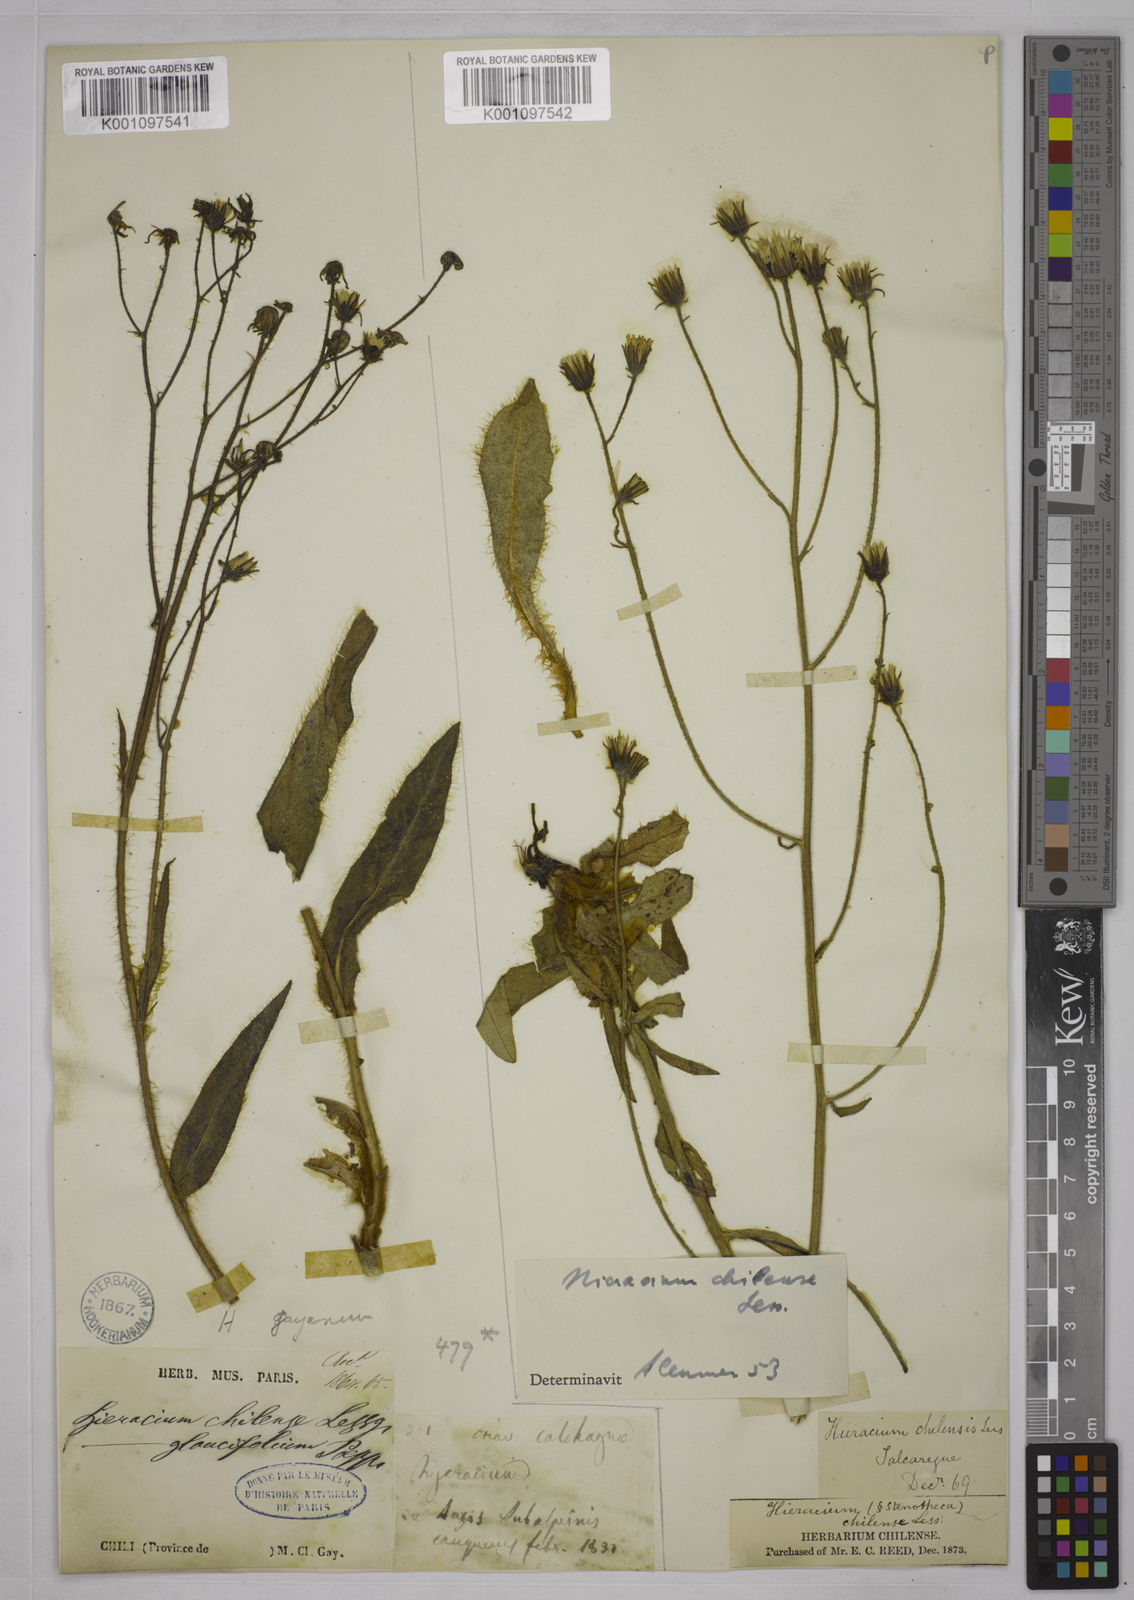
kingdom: Plantae
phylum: Tracheophyta
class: Magnoliopsida
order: Asterales
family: Asteraceae
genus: Hieracium
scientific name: Hieracium chilense
